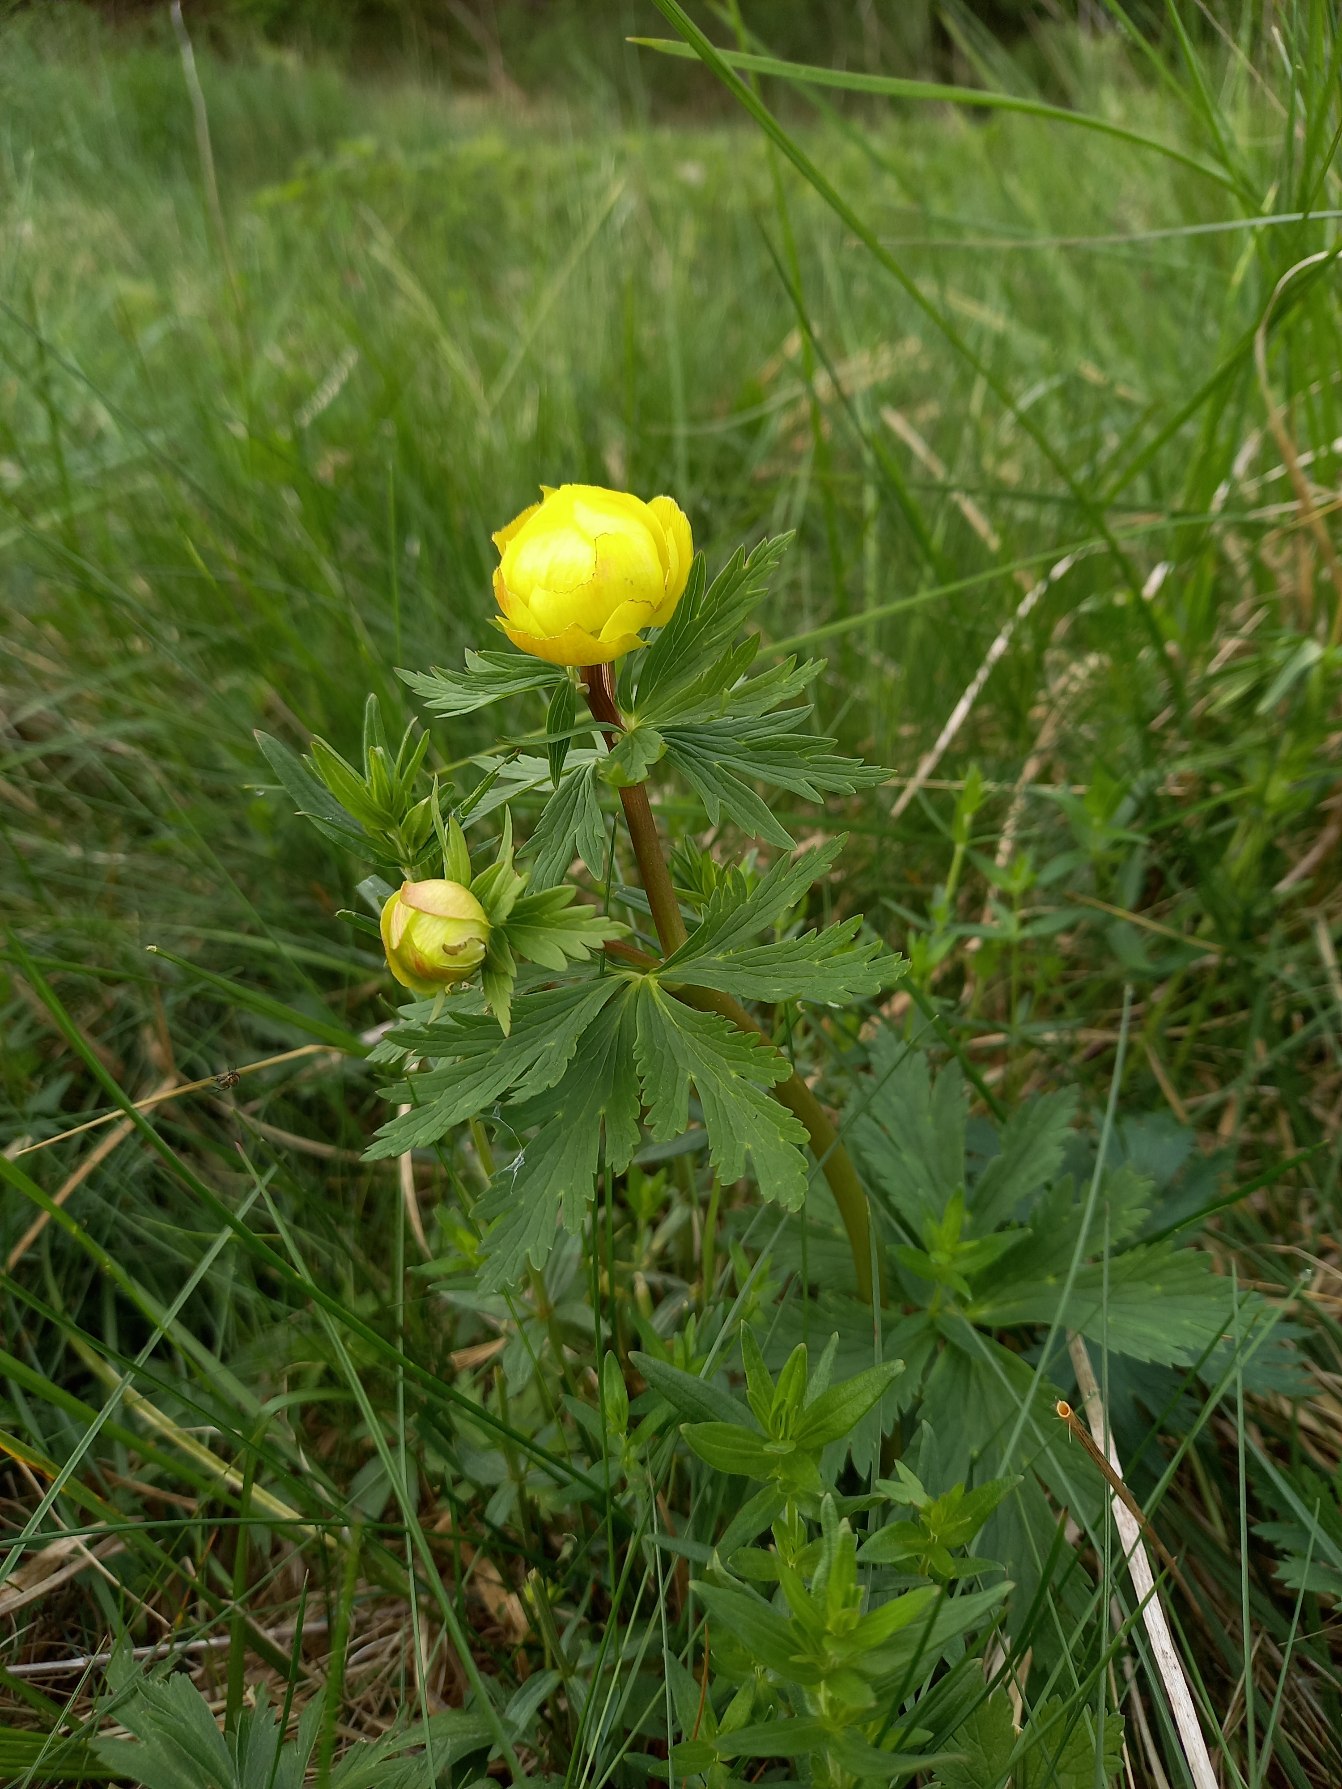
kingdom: Plantae
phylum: Tracheophyta
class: Magnoliopsida
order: Ranunculales
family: Ranunculaceae
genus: Trollius
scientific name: Trollius europaeus
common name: Engblomme
